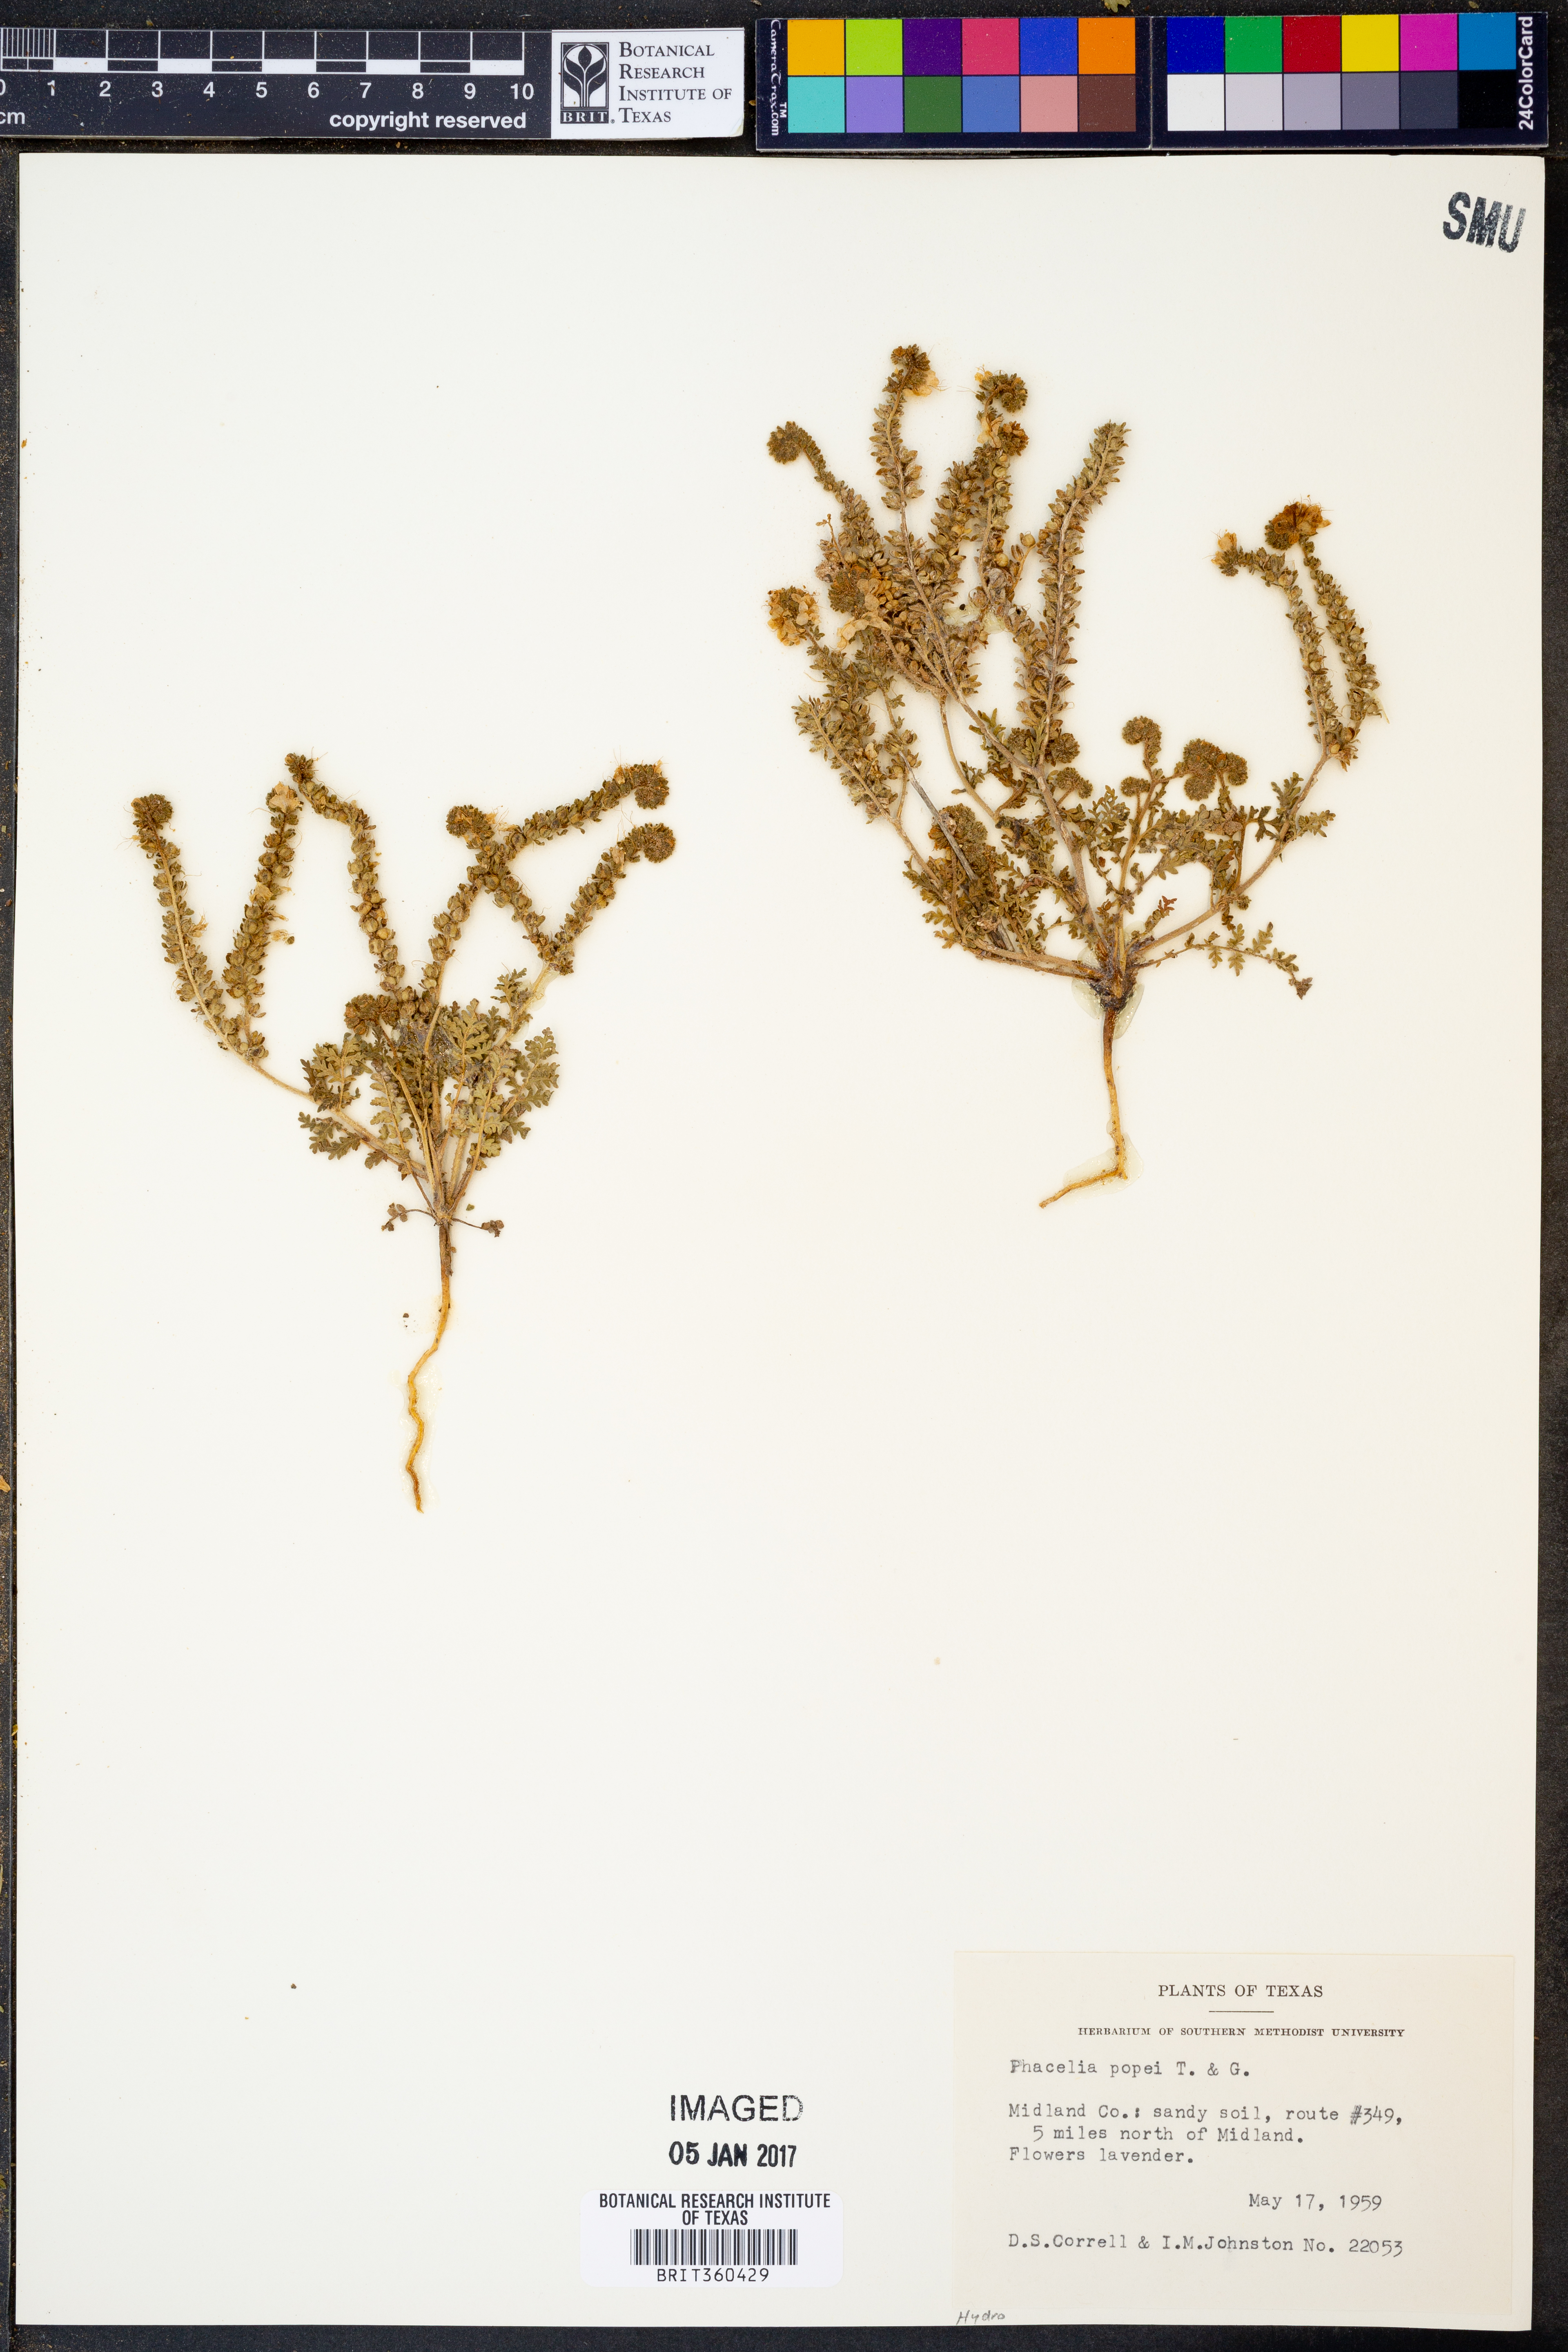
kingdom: Plantae
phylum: Tracheophyta
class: Magnoliopsida
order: Boraginales
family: Hydrophyllaceae
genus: Phacelia
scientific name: Phacelia popei
